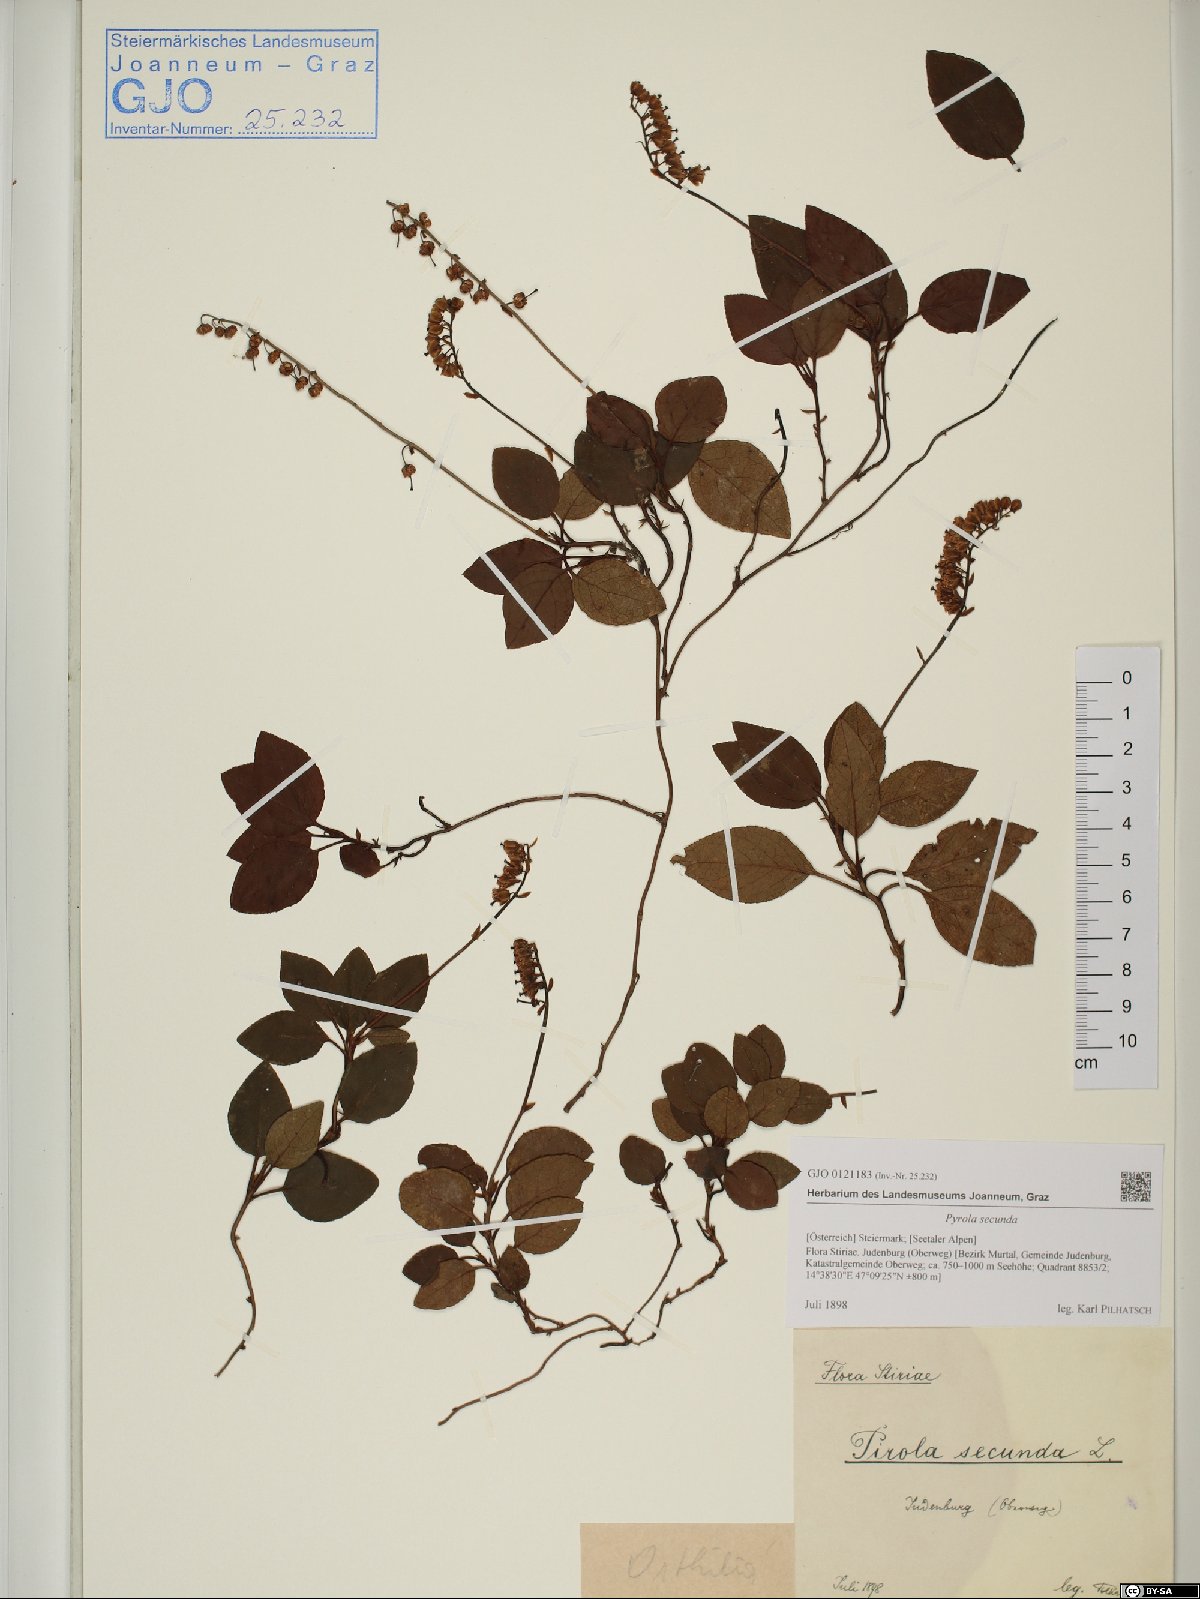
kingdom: Plantae
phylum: Tracheophyta
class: Magnoliopsida
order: Ericales
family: Ericaceae
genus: Orthilia
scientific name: Orthilia secunda
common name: One-sided orthilia
